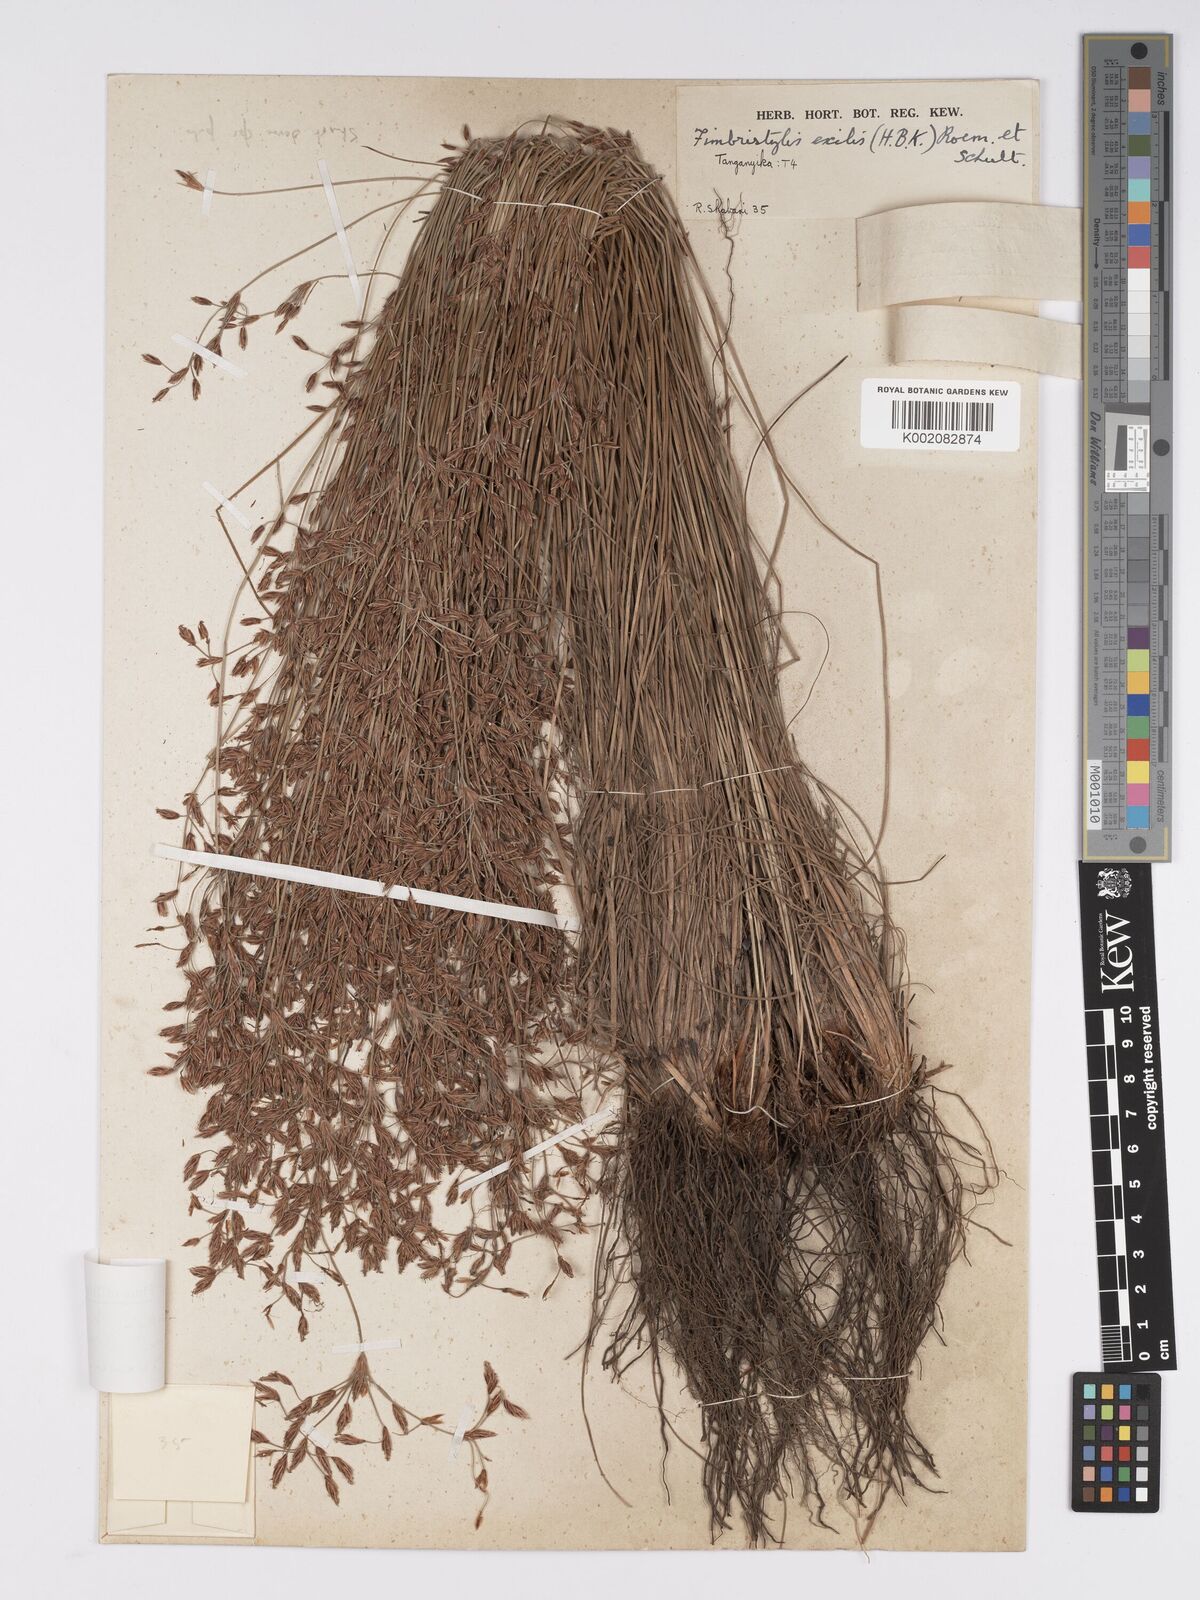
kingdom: Plantae
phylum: Tracheophyta
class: Liliopsida
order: Poales
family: Cyperaceae
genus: Bulbostylis
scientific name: Bulbostylis hispidula
